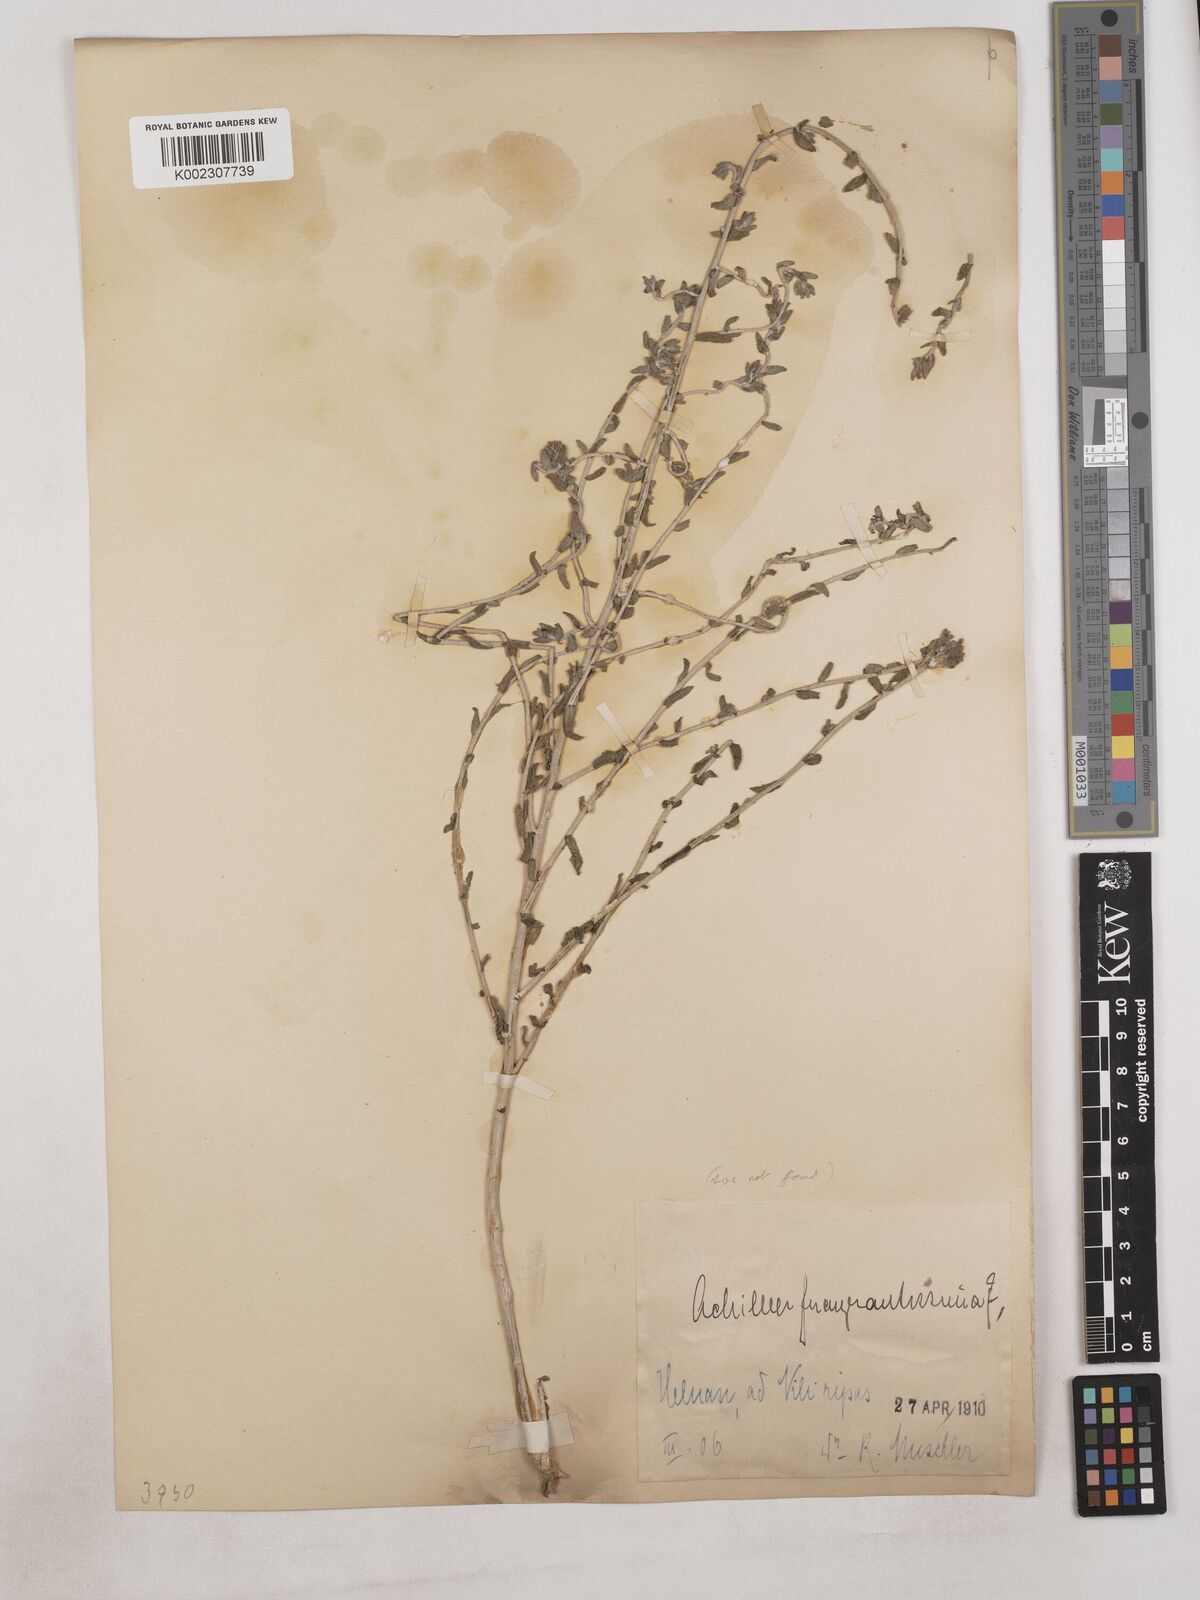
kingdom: Plantae
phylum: Tracheophyta
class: Magnoliopsida
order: Asterales
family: Asteraceae
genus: Achillea
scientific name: Achillea fragrantissima
